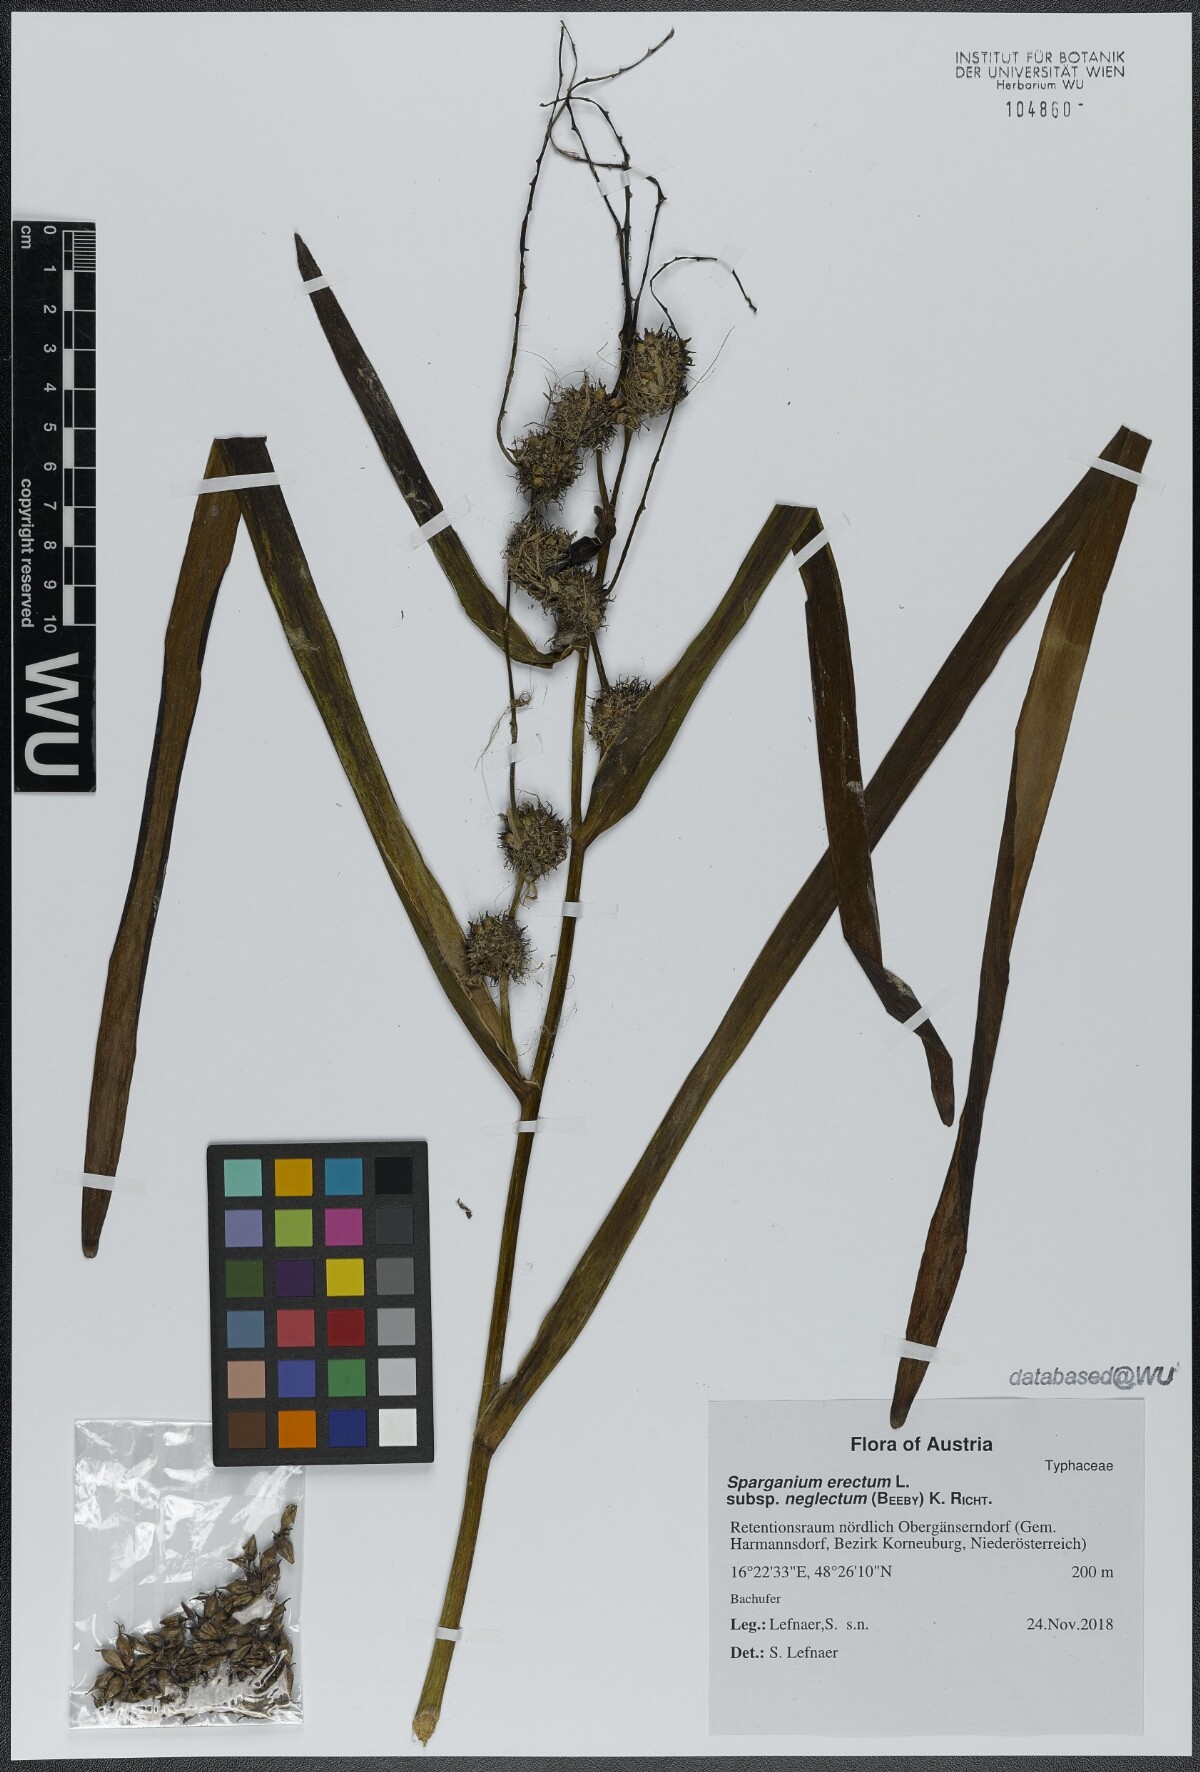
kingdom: Plantae
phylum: Tracheophyta
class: Liliopsida
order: Poales
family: Typhaceae
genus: Sparganium
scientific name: Sparganium erectum
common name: Branched bur-reed
